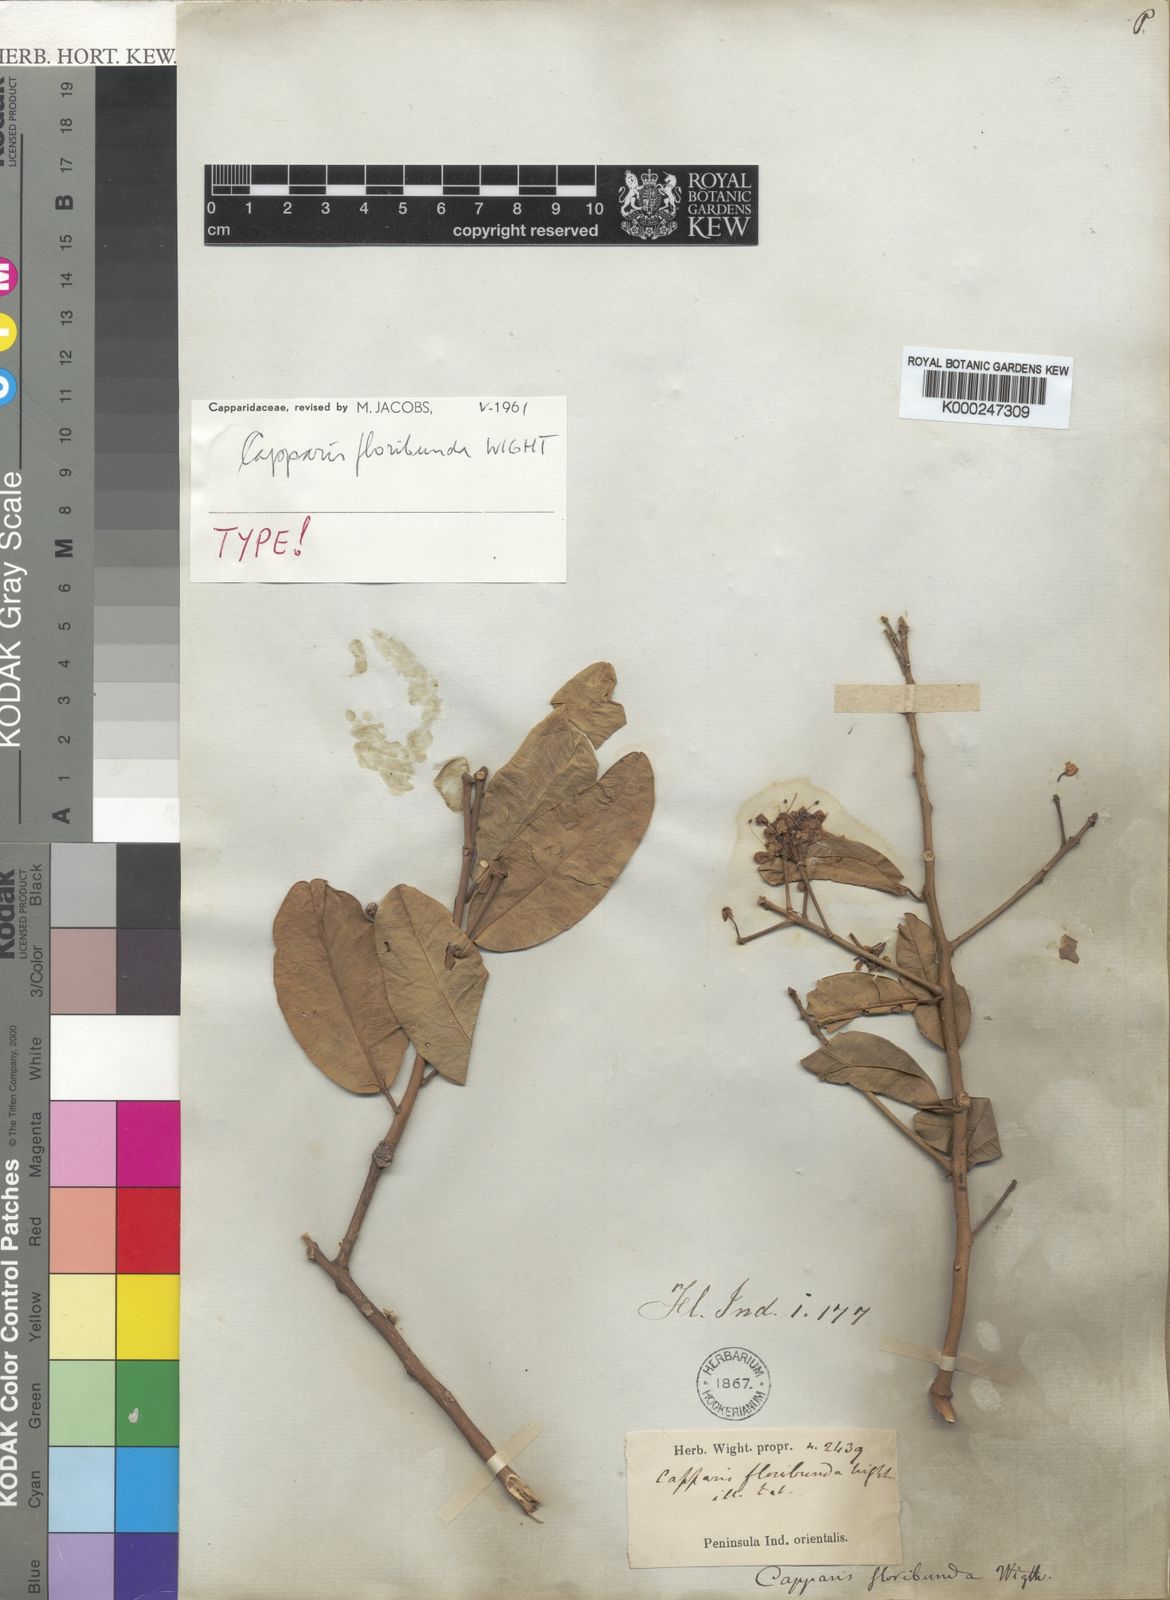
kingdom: Plantae
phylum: Tracheophyta
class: Magnoliopsida
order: Brassicales
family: Capparaceae
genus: Capparis
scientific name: Capparis floribunda
